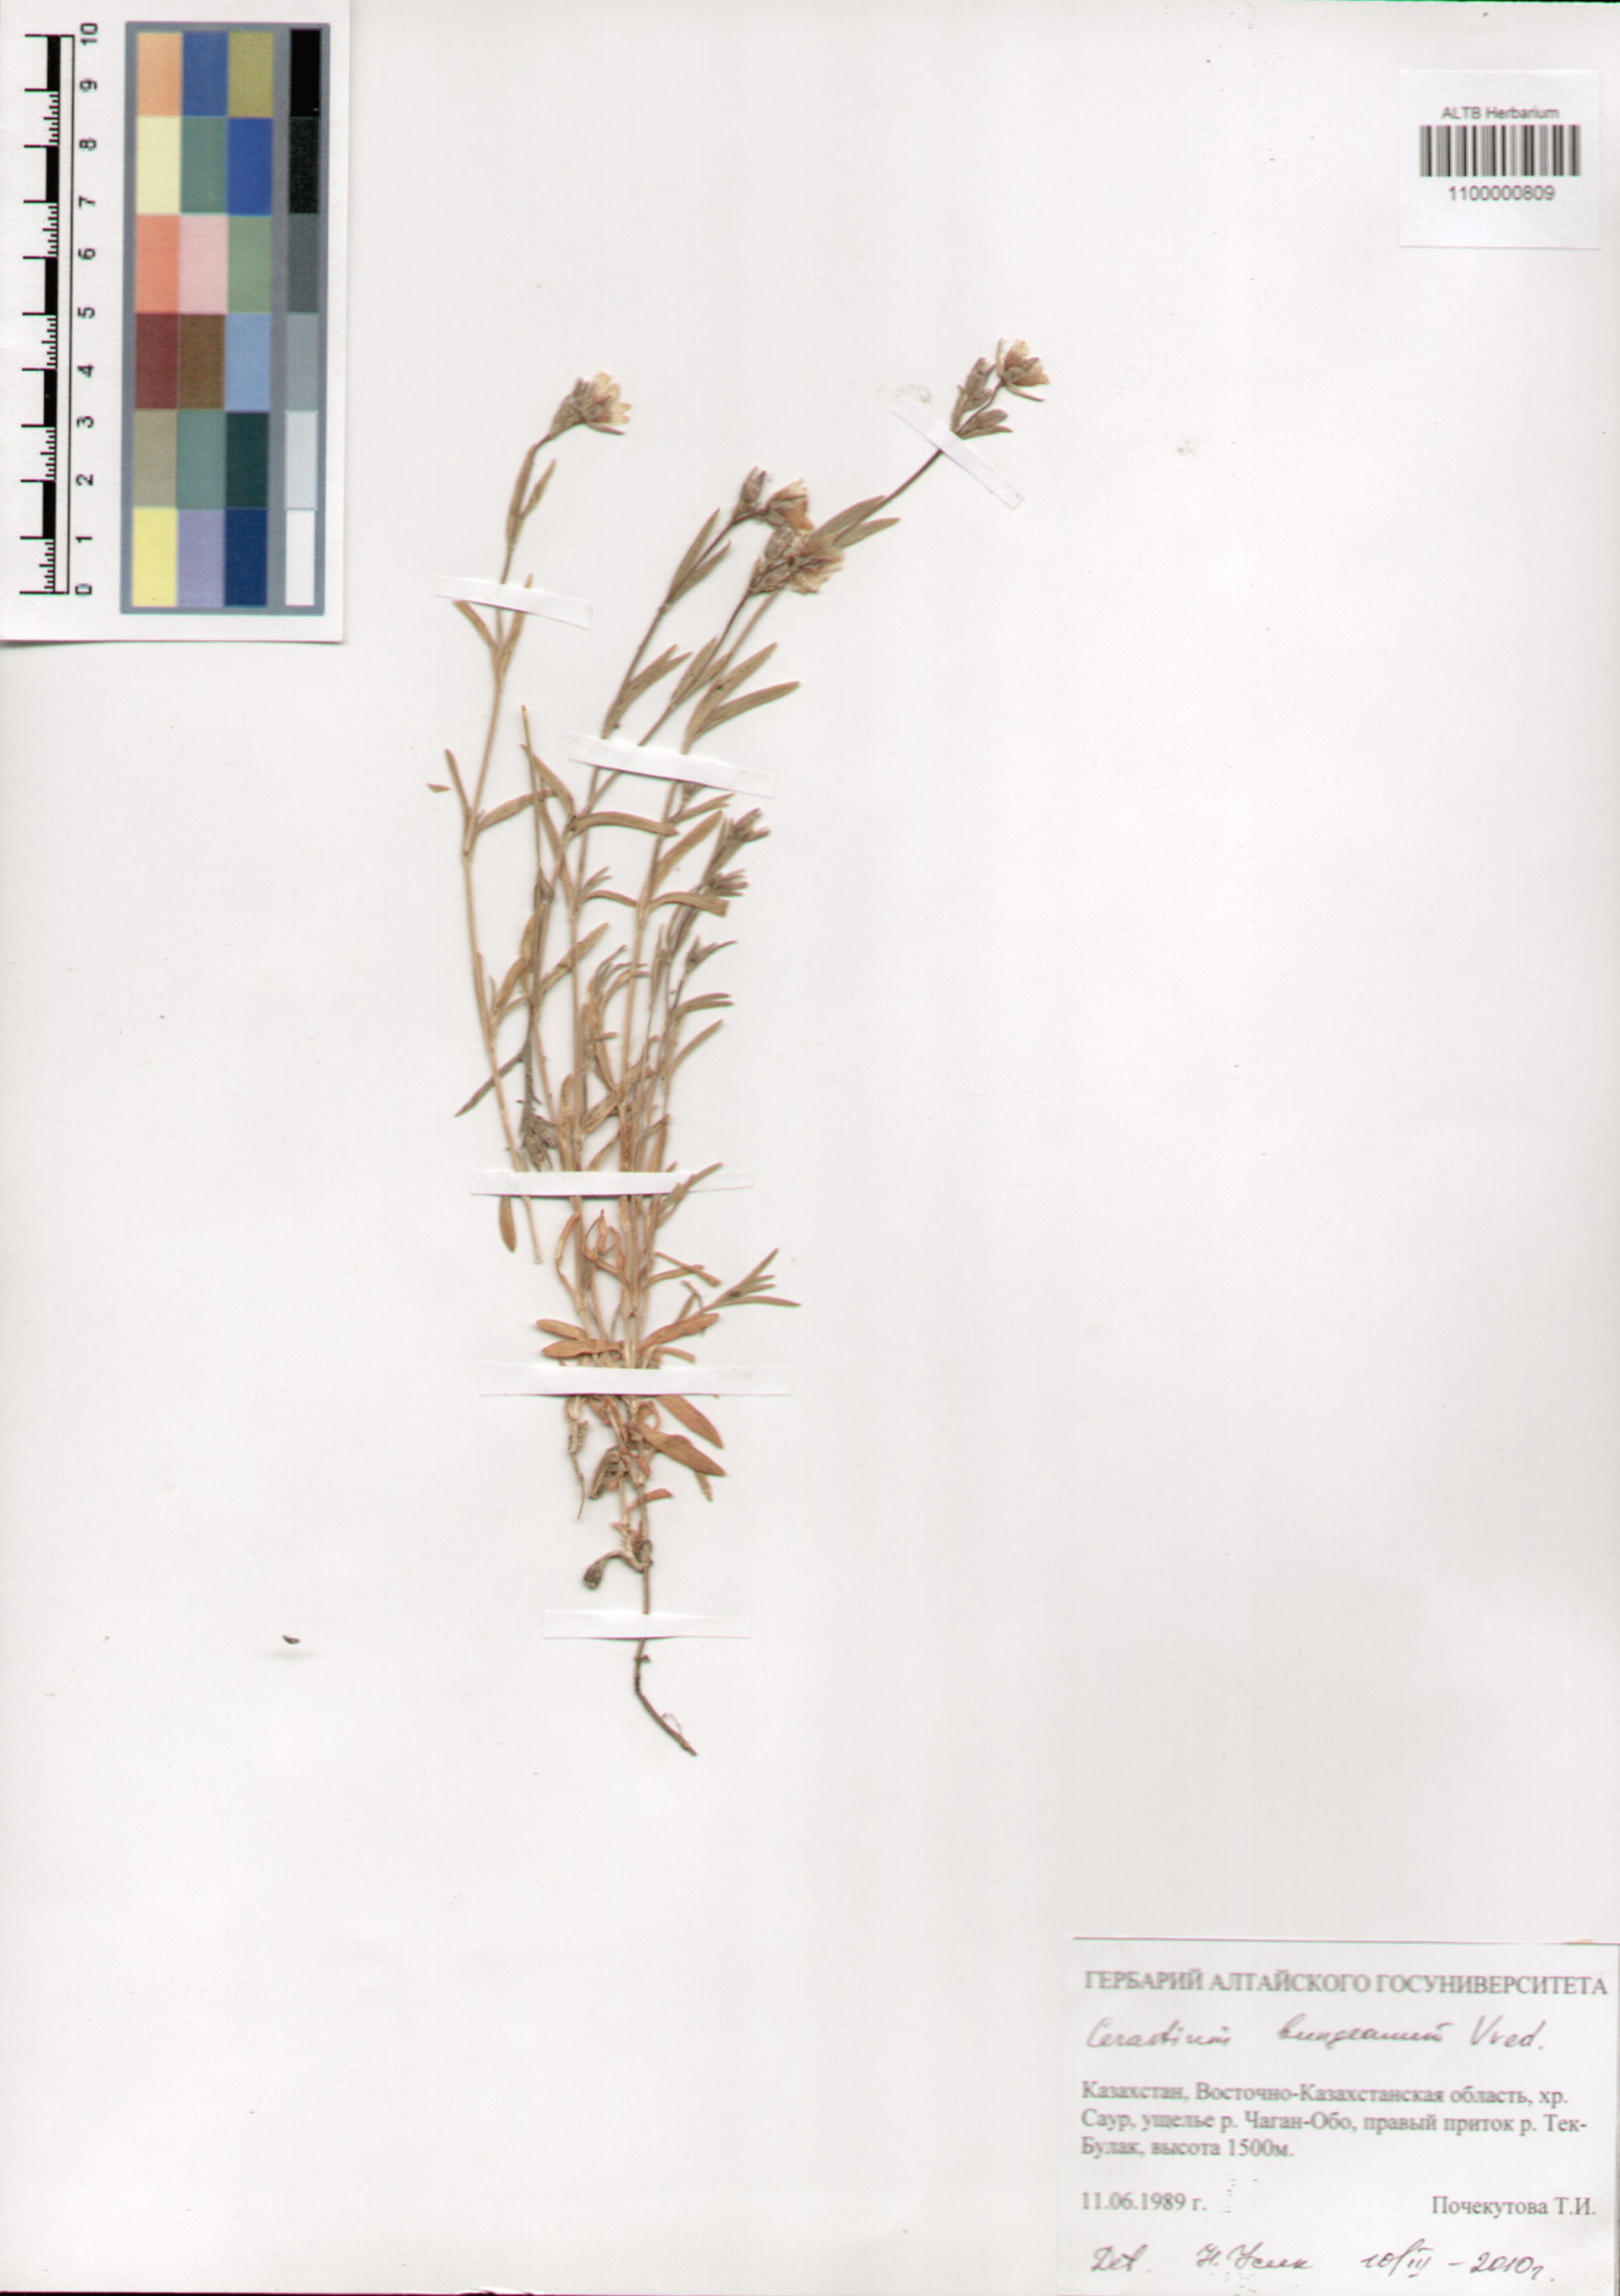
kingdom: Plantae
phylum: Tracheophyta
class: Magnoliopsida
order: Caryophyllales
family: Caryophyllaceae
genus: Dichodon
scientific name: Dichodon maximum
